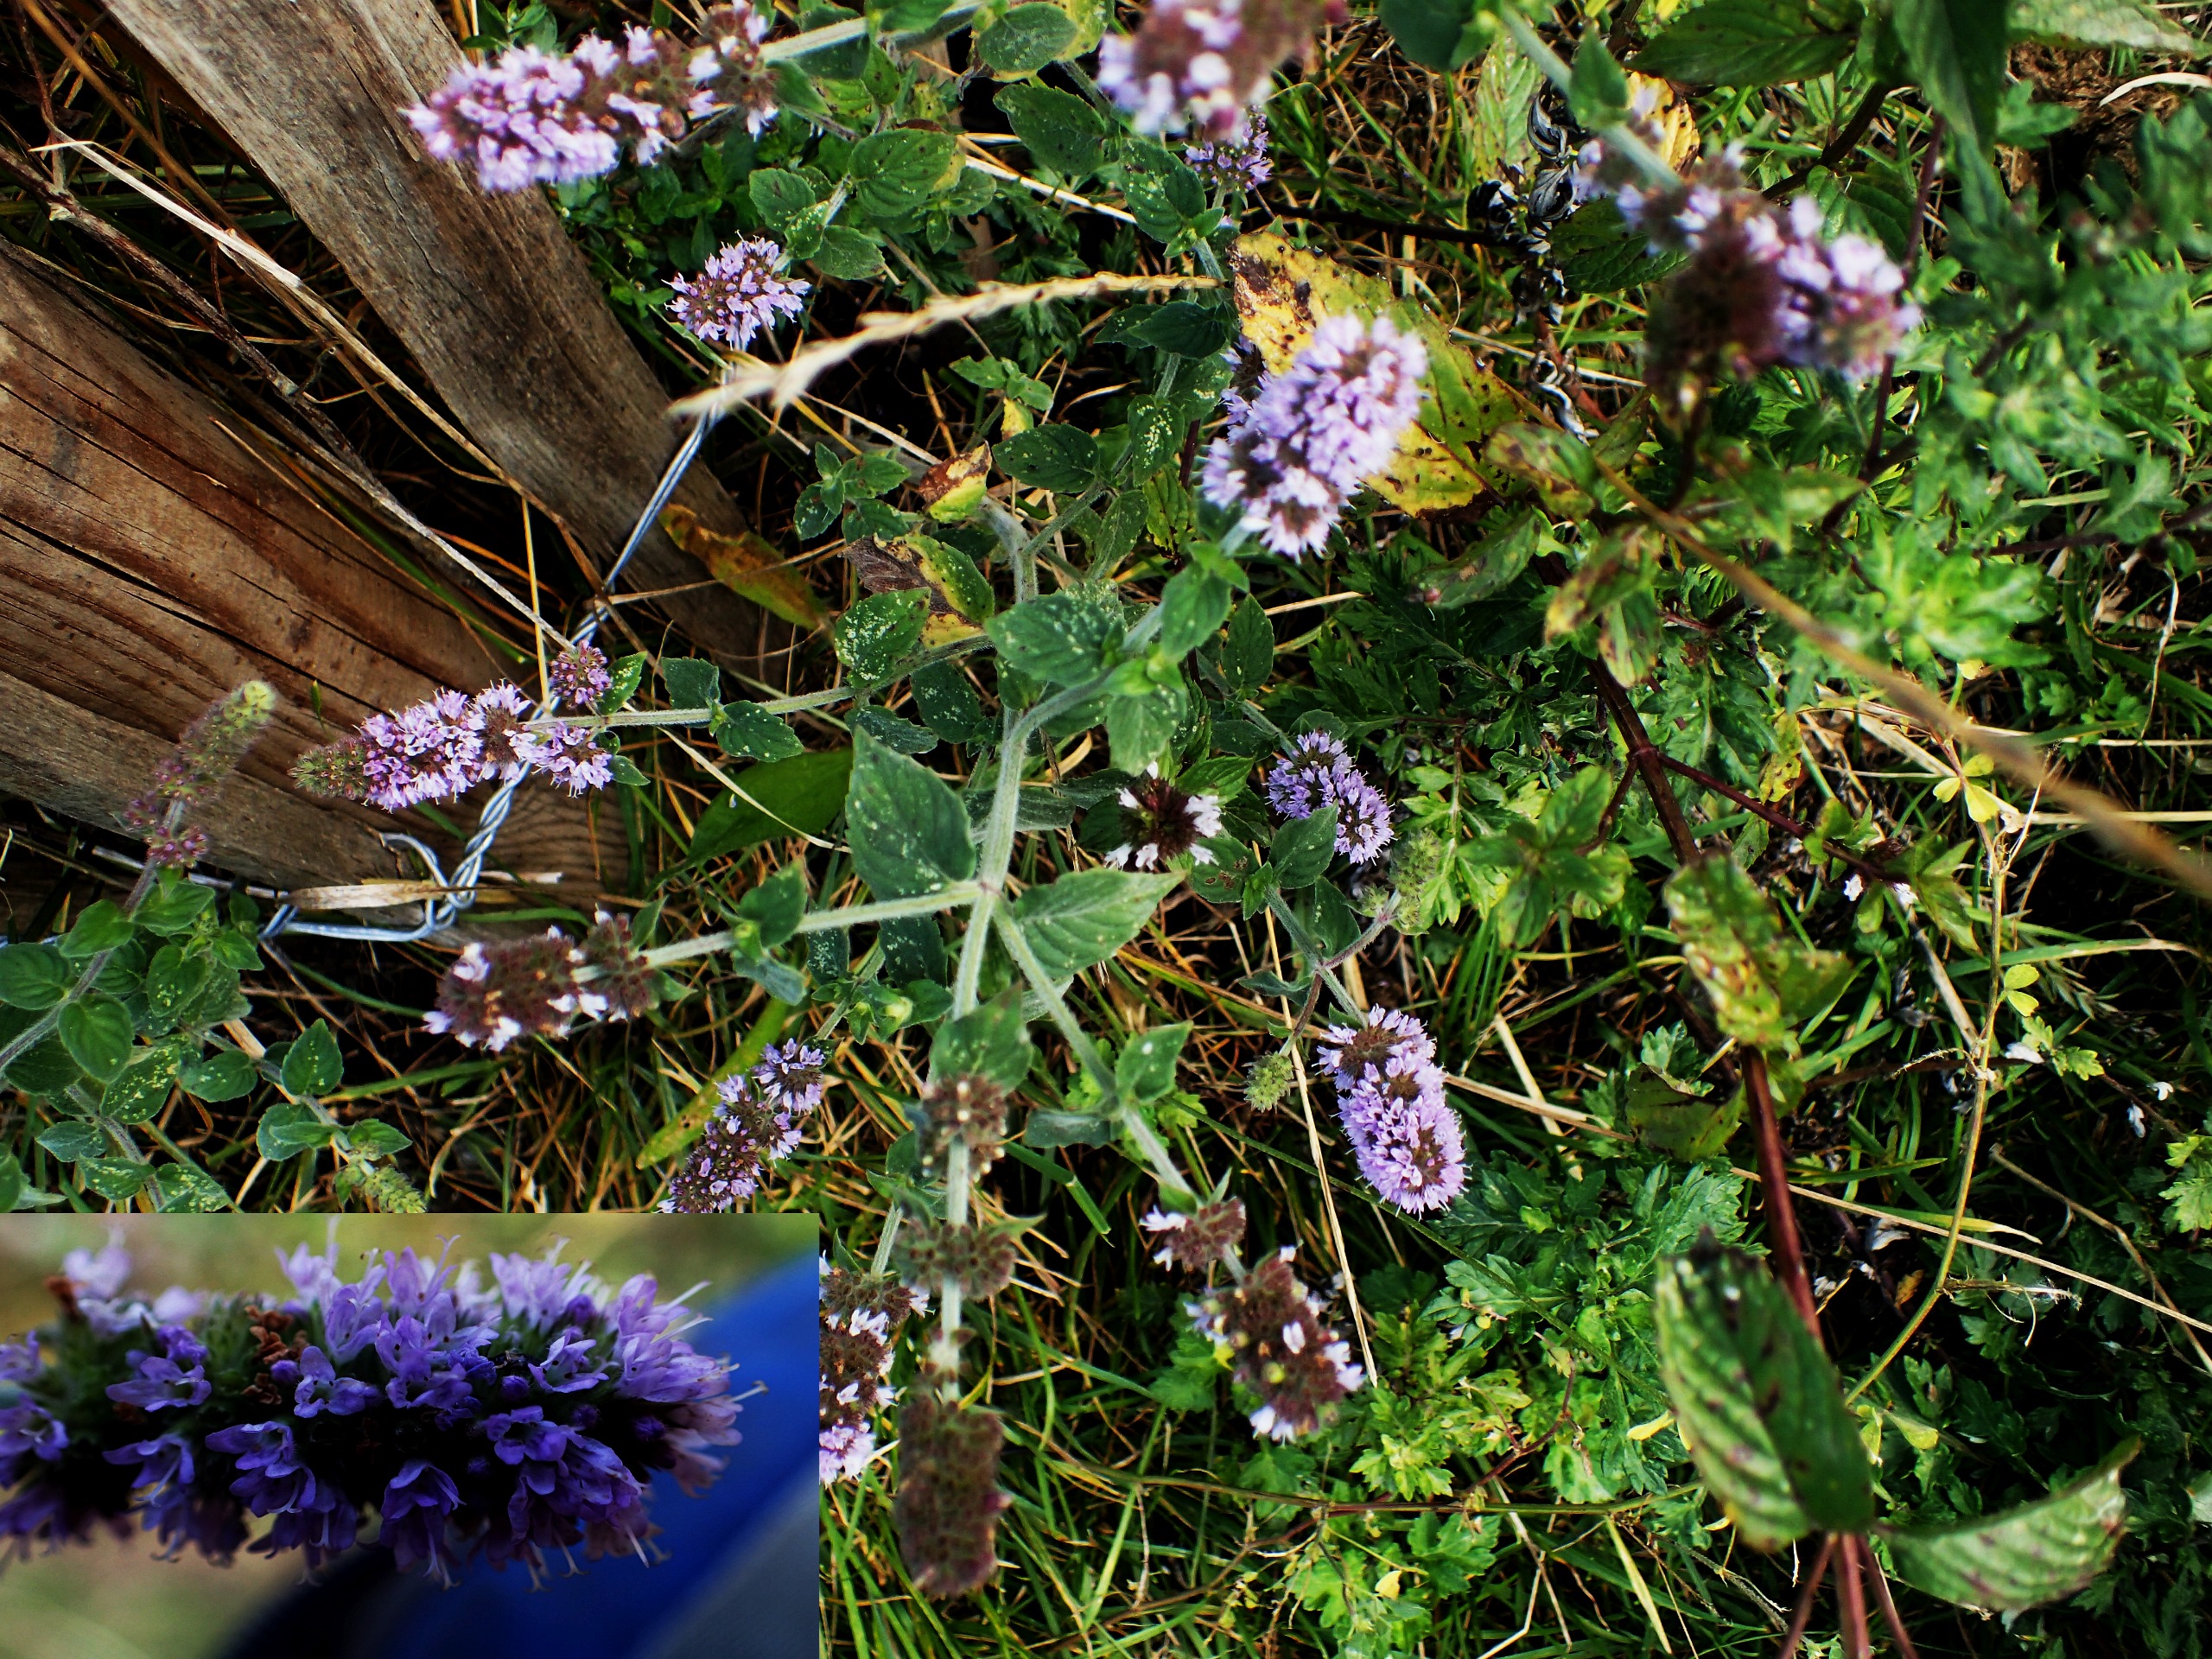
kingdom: Plantae
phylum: Tracheophyta
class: Magnoliopsida
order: Lamiales
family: Lamiaceae
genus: Mentha
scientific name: Mentha
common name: Grå mynte × grøn mynte
